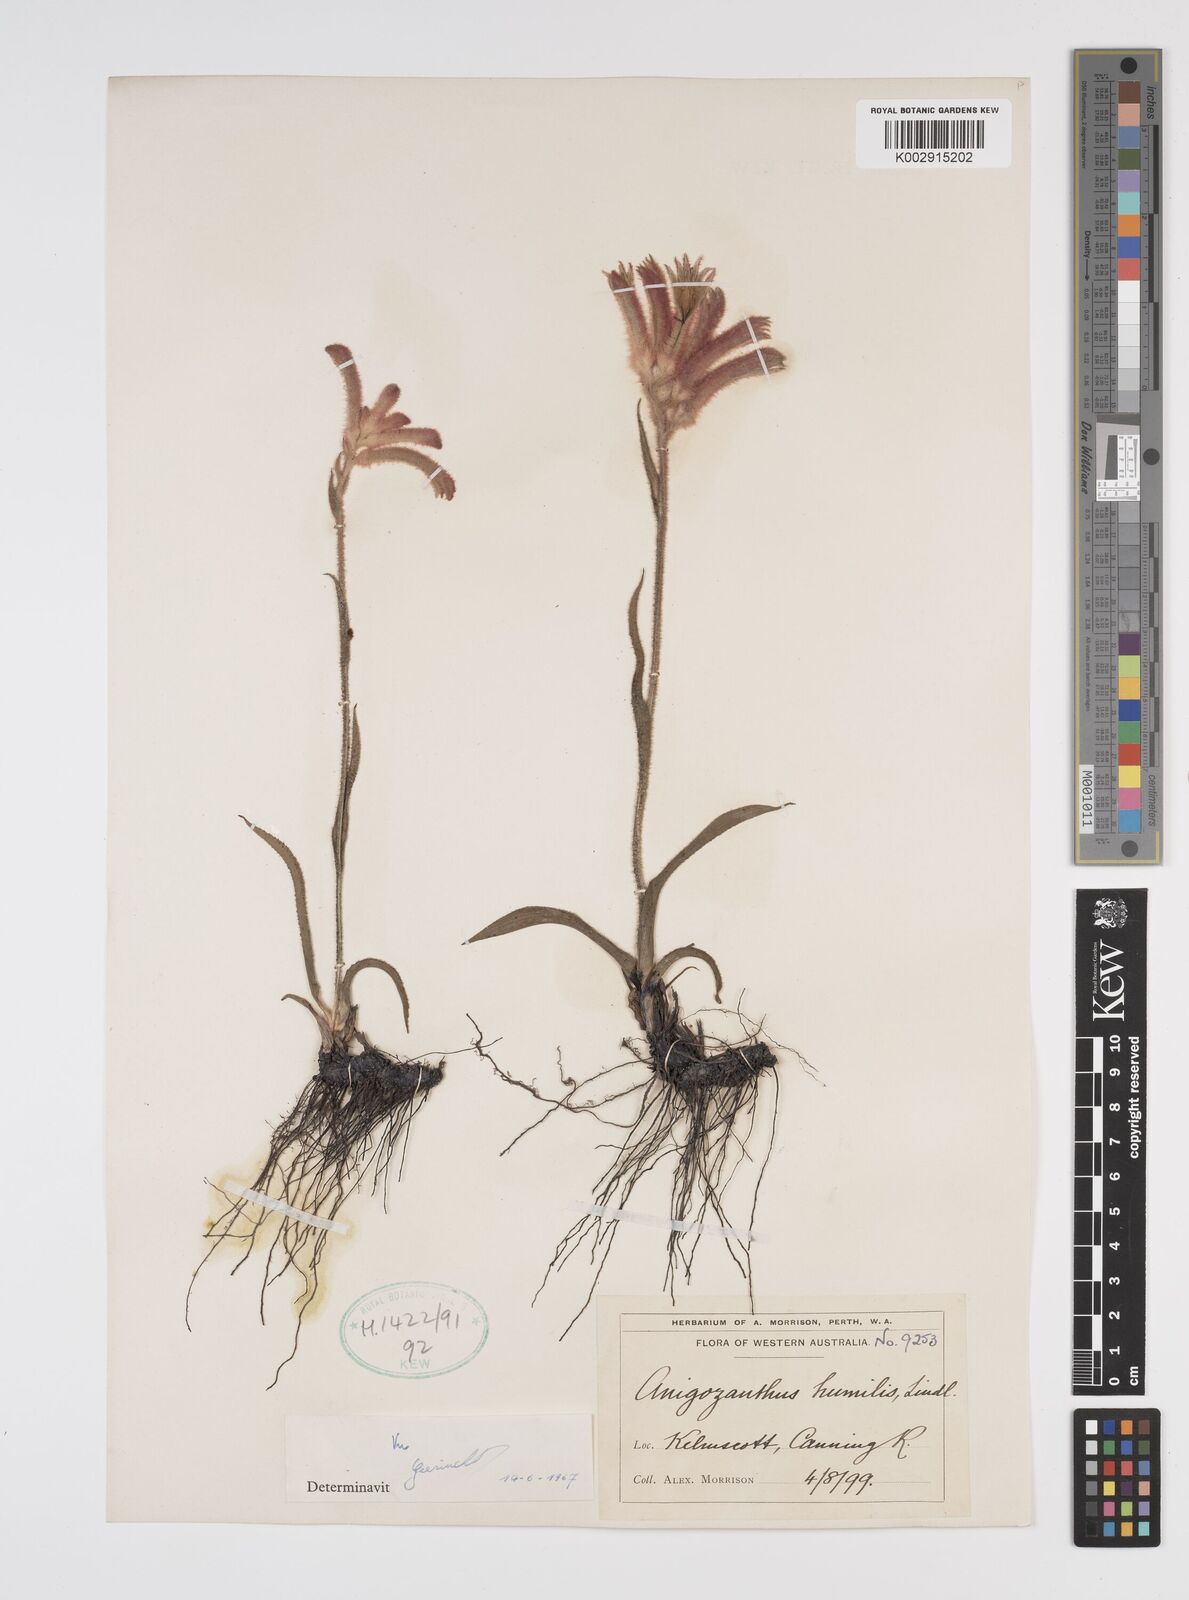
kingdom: Plantae
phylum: Tracheophyta
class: Liliopsida
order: Commelinales
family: Haemodoraceae
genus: Anigozanthos
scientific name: Anigozanthos humilis
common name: Cat's-paw
